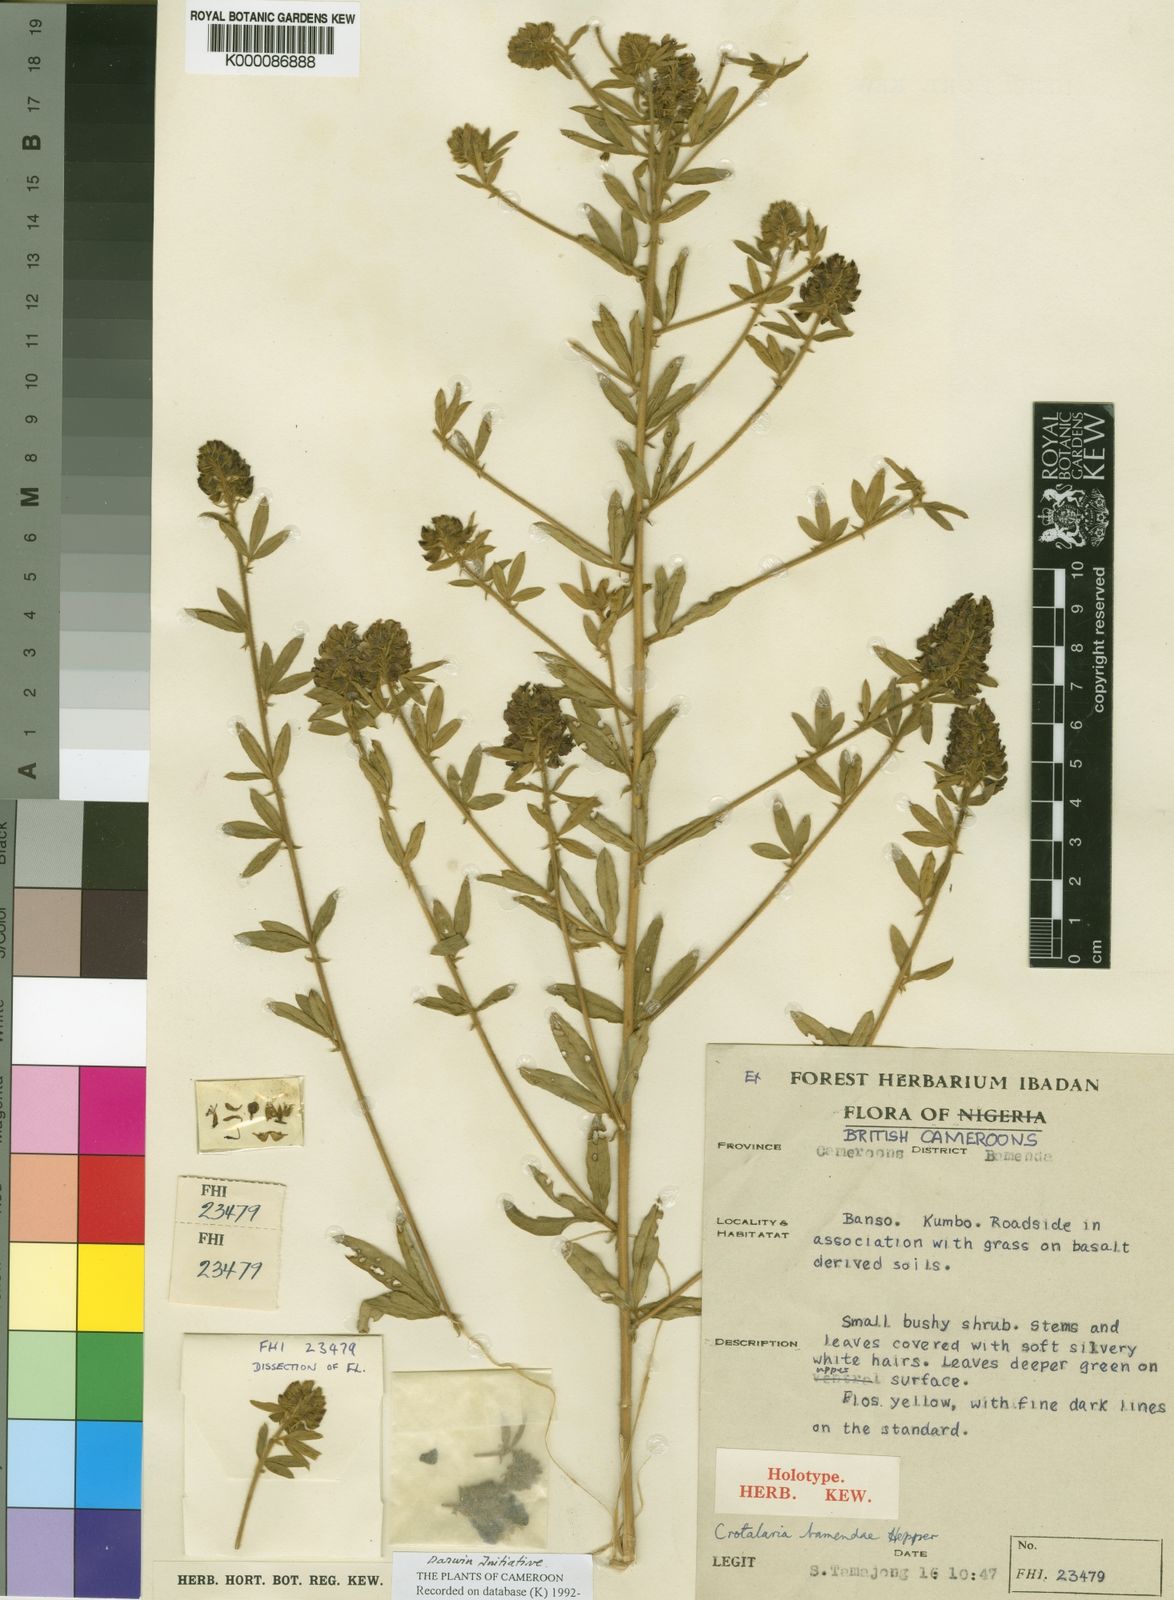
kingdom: Plantae
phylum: Tracheophyta
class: Magnoliopsida
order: Fabales
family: Fabaceae
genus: Crotalaria
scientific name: Crotalaria bamendae
